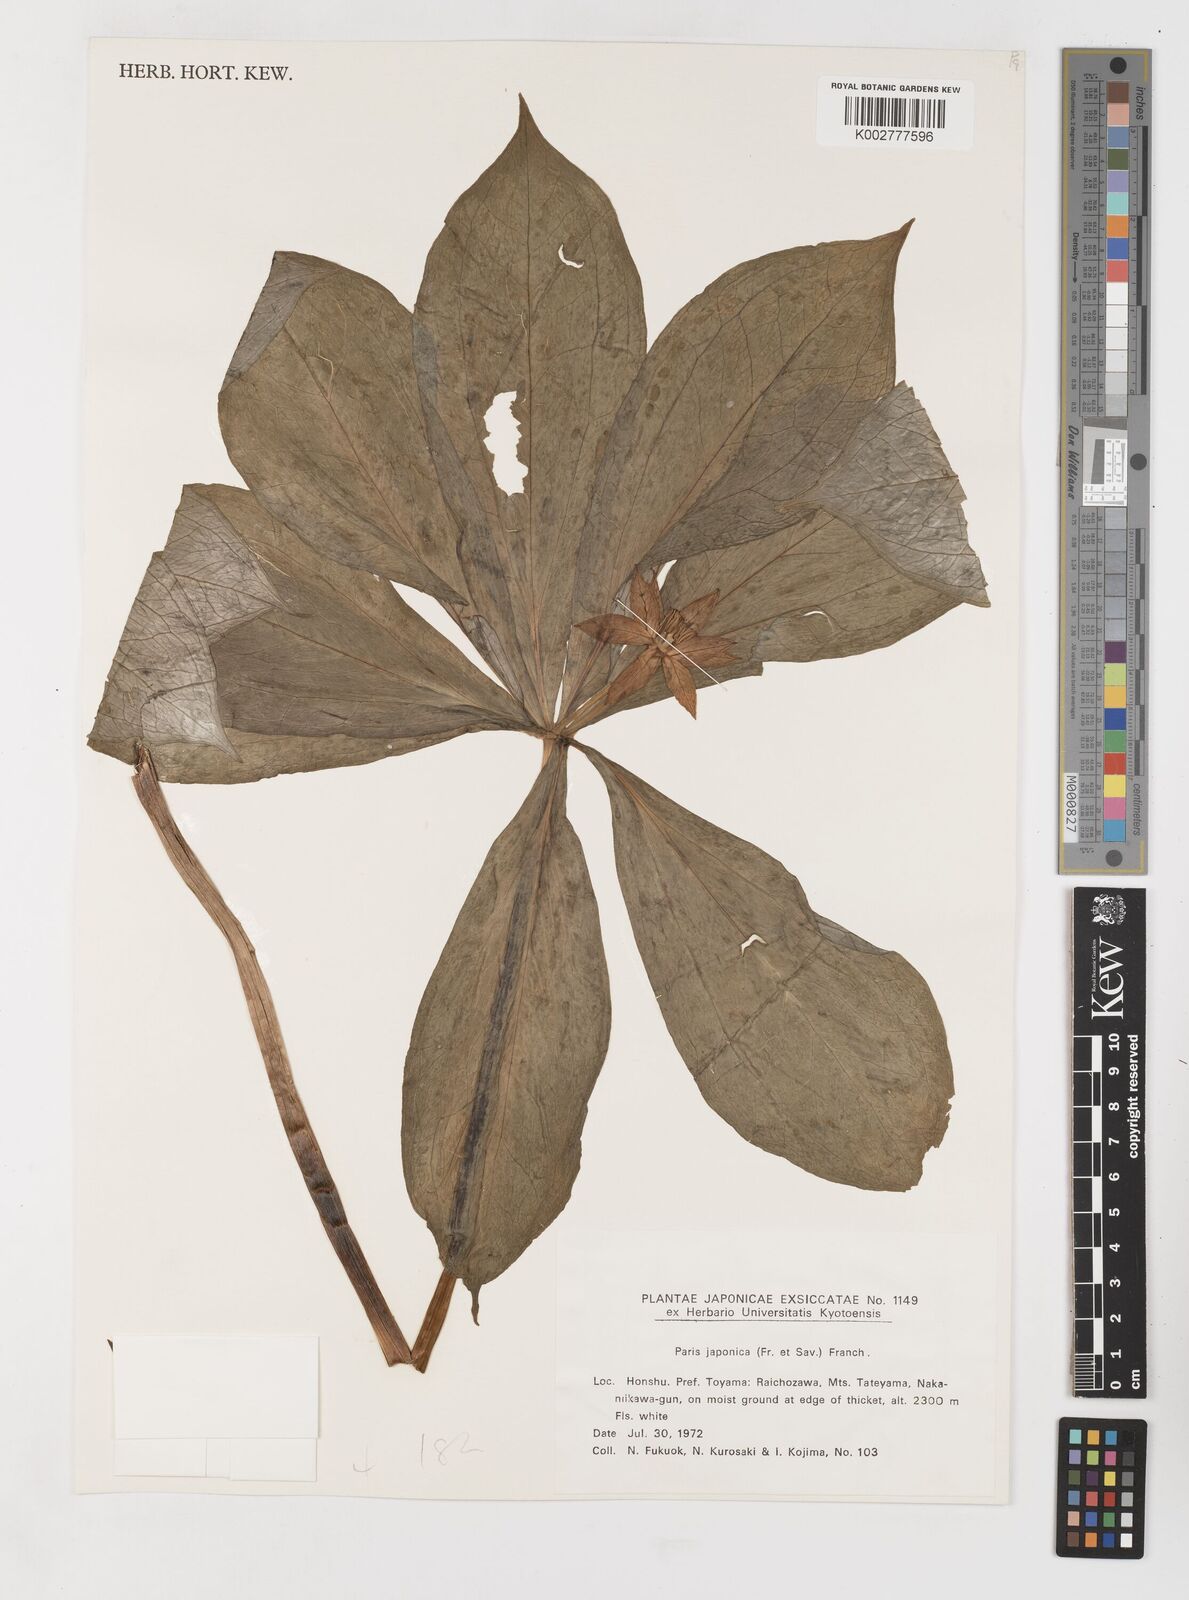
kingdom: Plantae
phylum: Tracheophyta
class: Liliopsida
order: Liliales
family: Melanthiaceae
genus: Paris
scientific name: Paris
